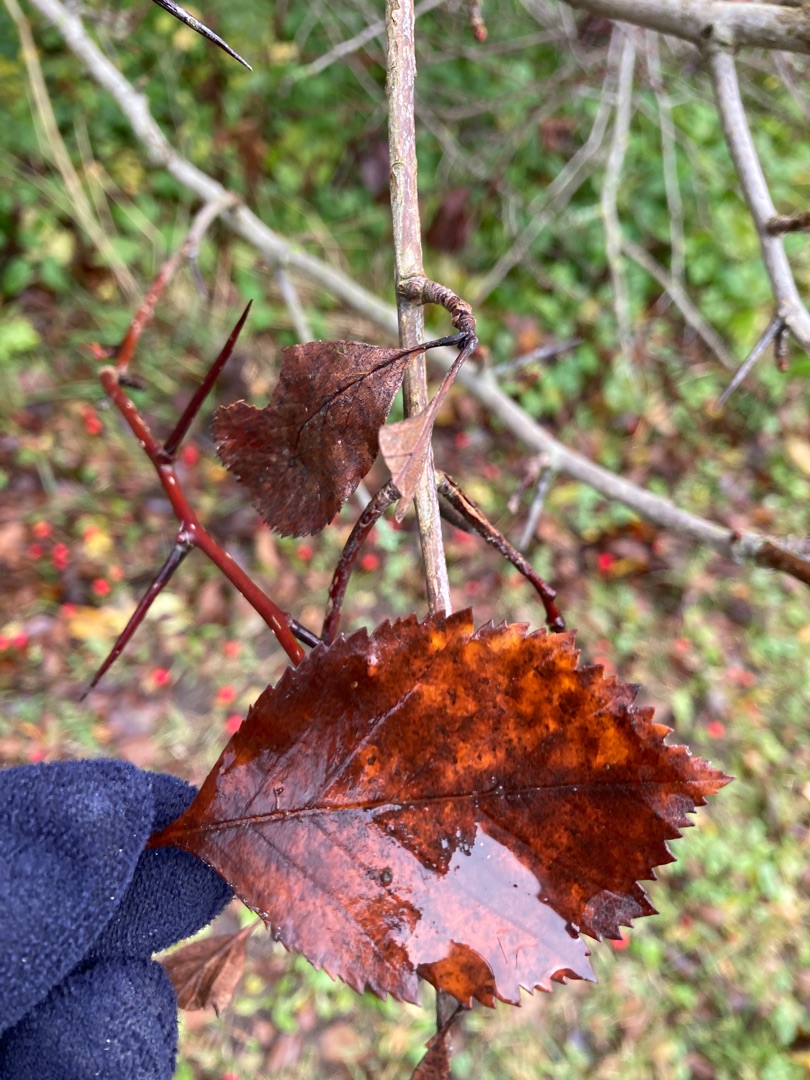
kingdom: Plantae
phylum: Tracheophyta
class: Magnoliopsida
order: Rosales
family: Rosaceae
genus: Crataegus
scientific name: Crataegus persimilis
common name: Syltornet tjørn
